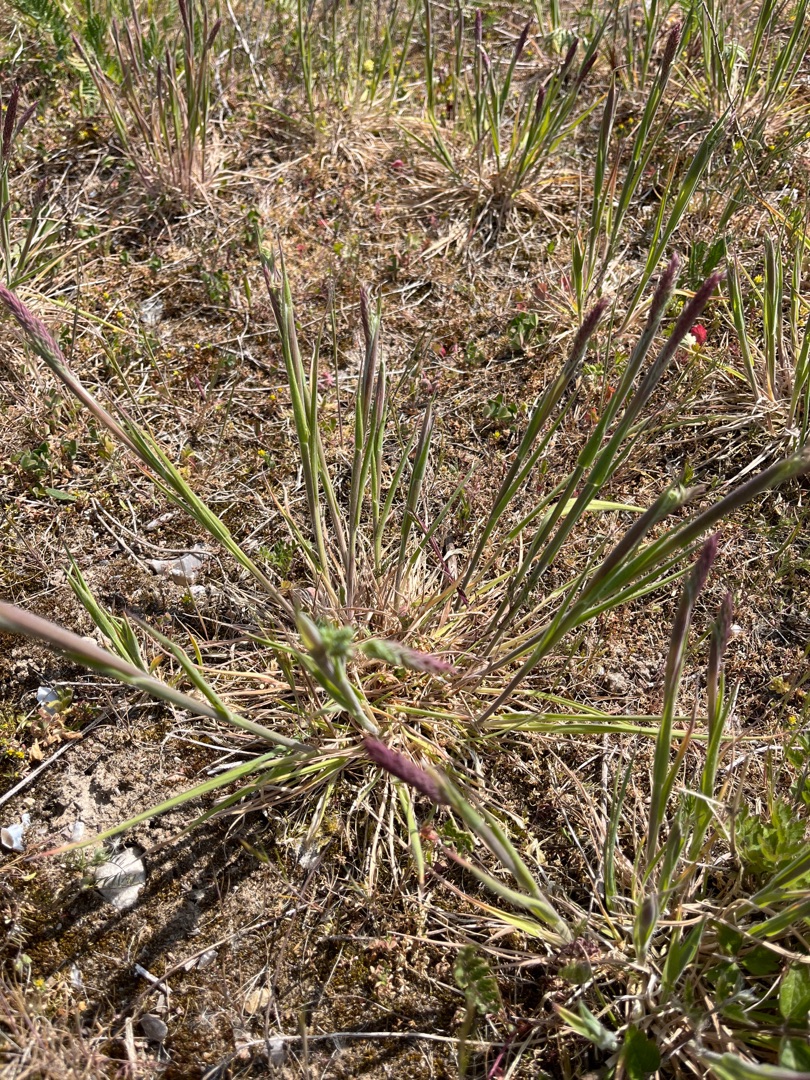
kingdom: Plantae
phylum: Tracheophyta
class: Liliopsida
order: Poales
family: Poaceae
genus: Holcus
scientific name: Holcus lanatus
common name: Fløjlsgræs
